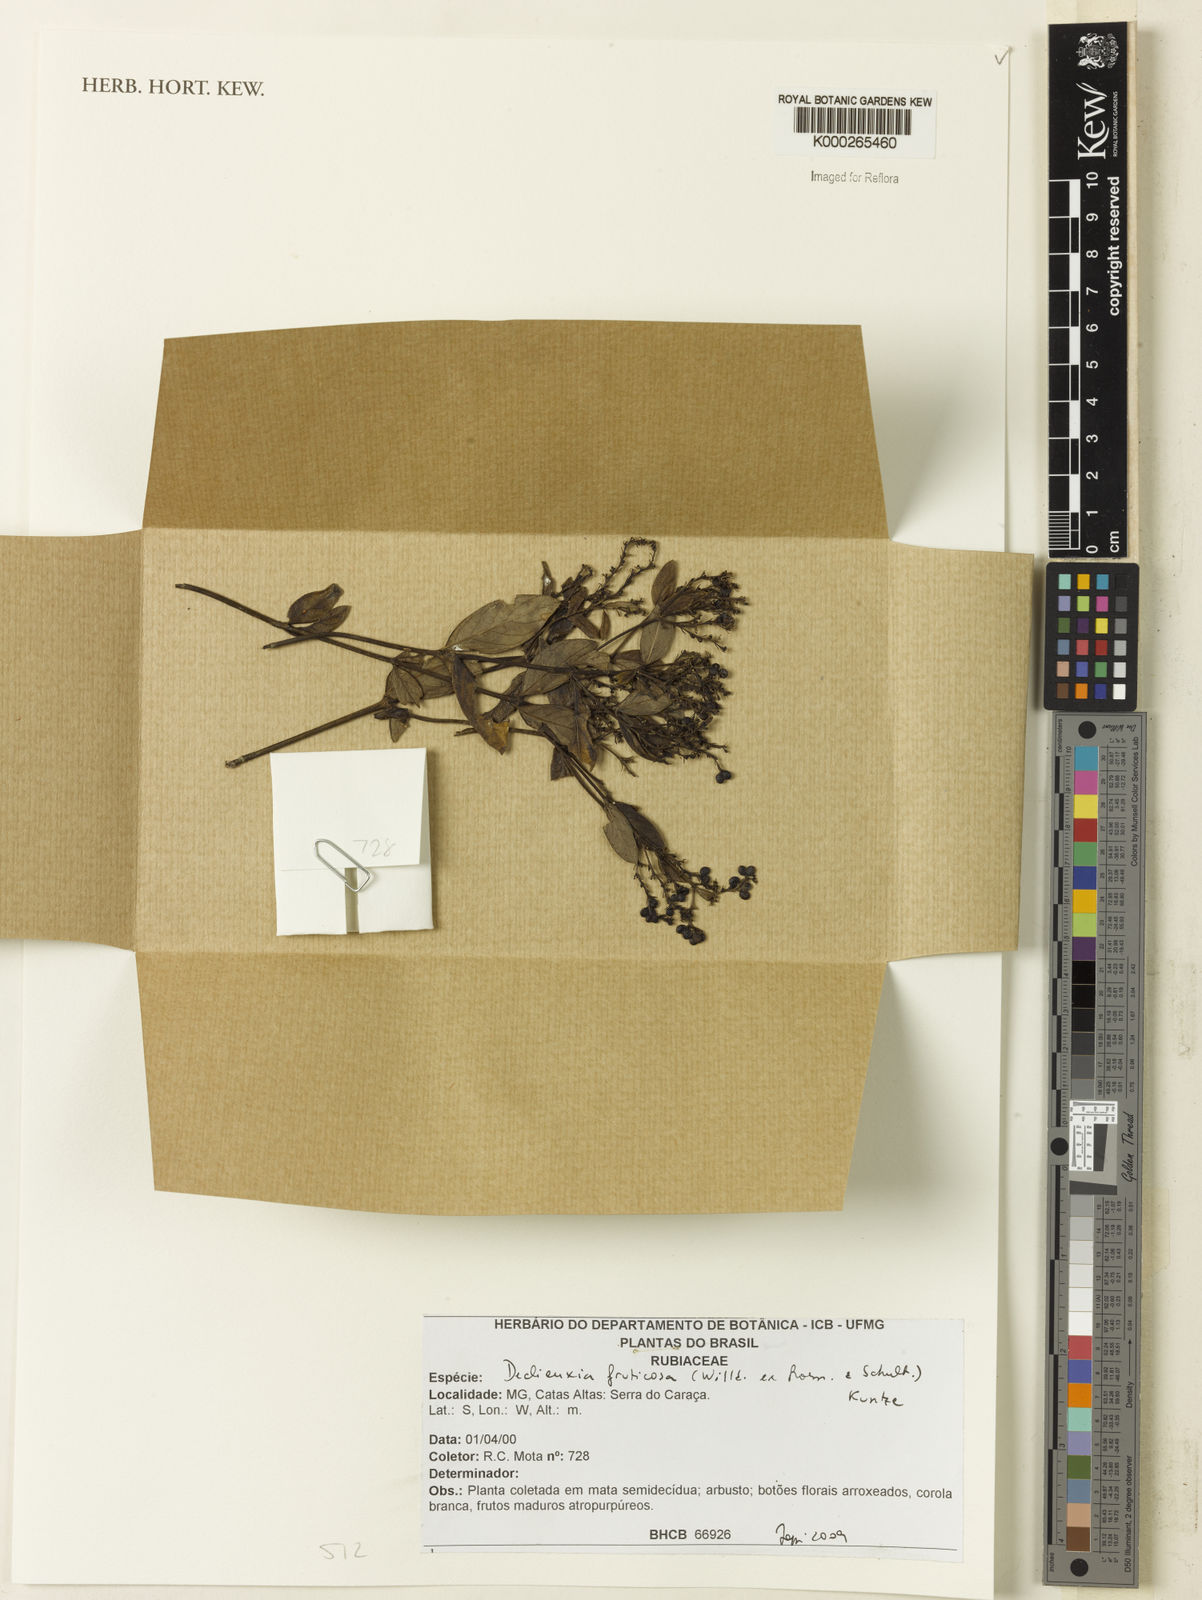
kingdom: Plantae
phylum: Tracheophyta
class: Magnoliopsida
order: Gentianales
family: Rubiaceae
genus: Declieuxia
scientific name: Declieuxia fruticosa
